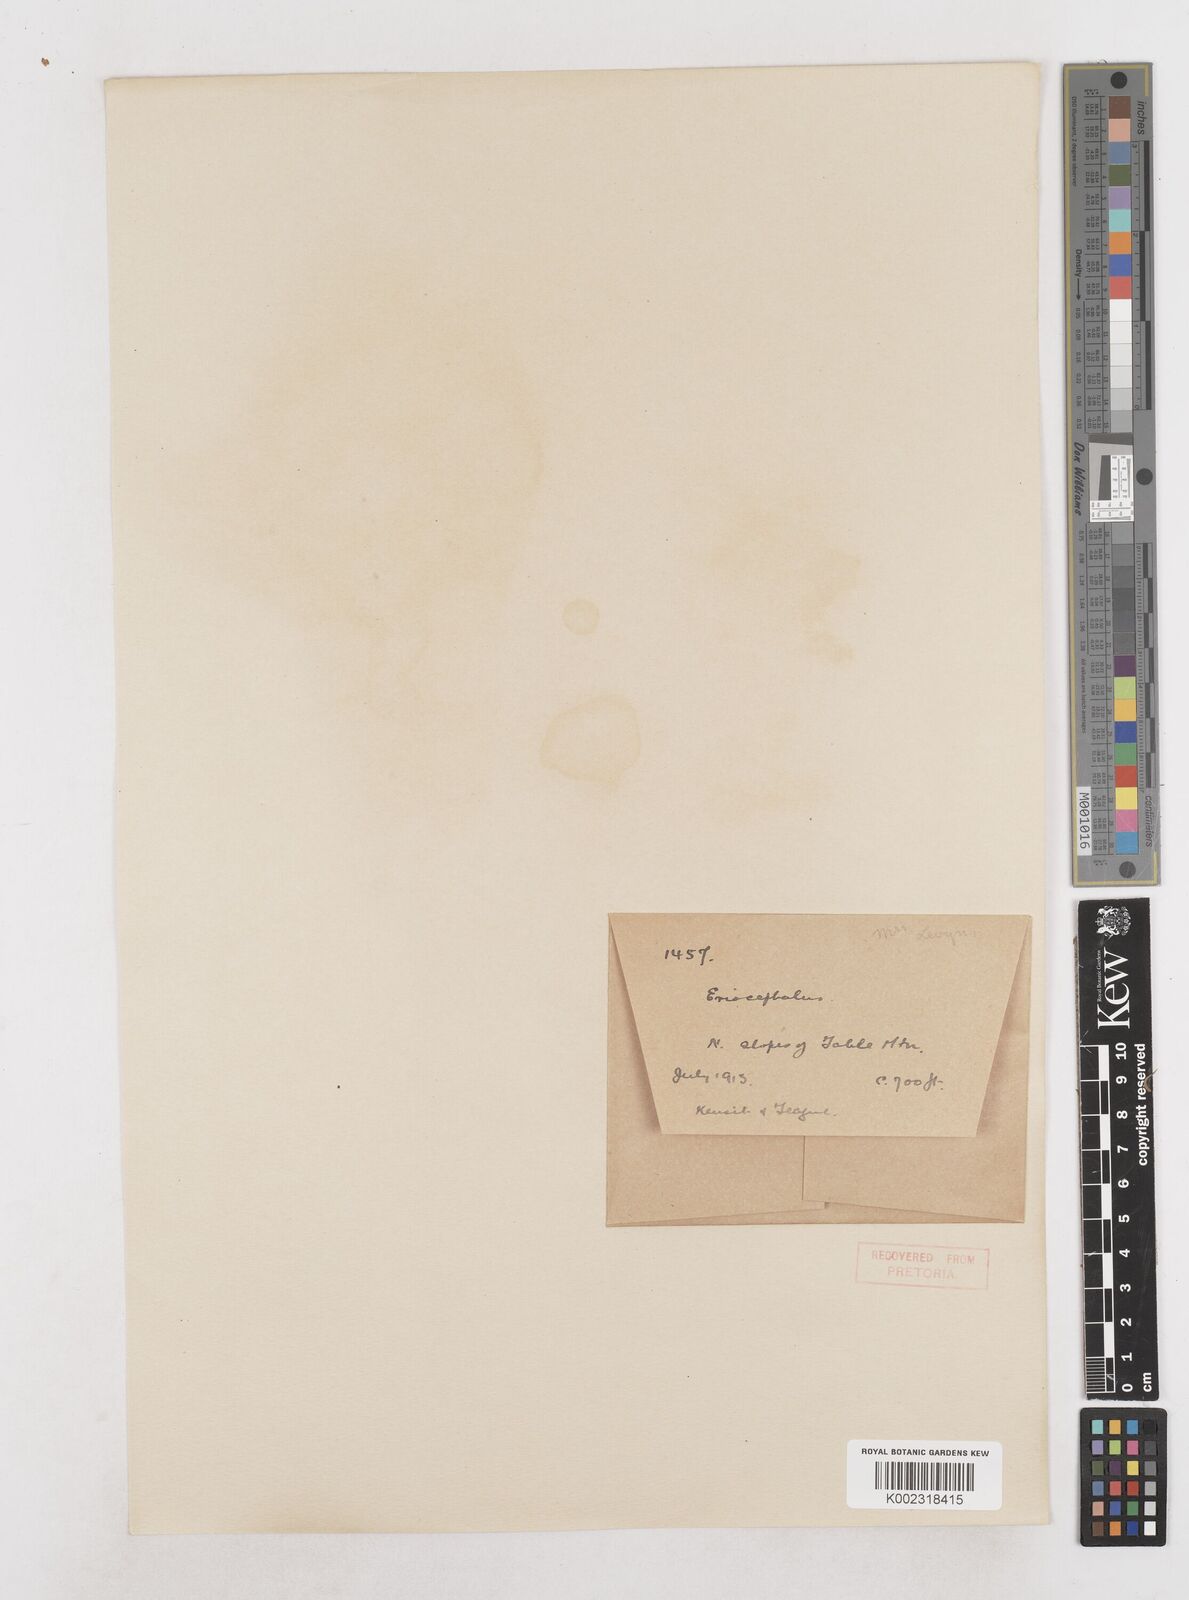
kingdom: Plantae
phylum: Tracheophyta
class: Magnoliopsida
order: Asterales
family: Asteraceae
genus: Eriocephalus
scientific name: Eriocephalus
